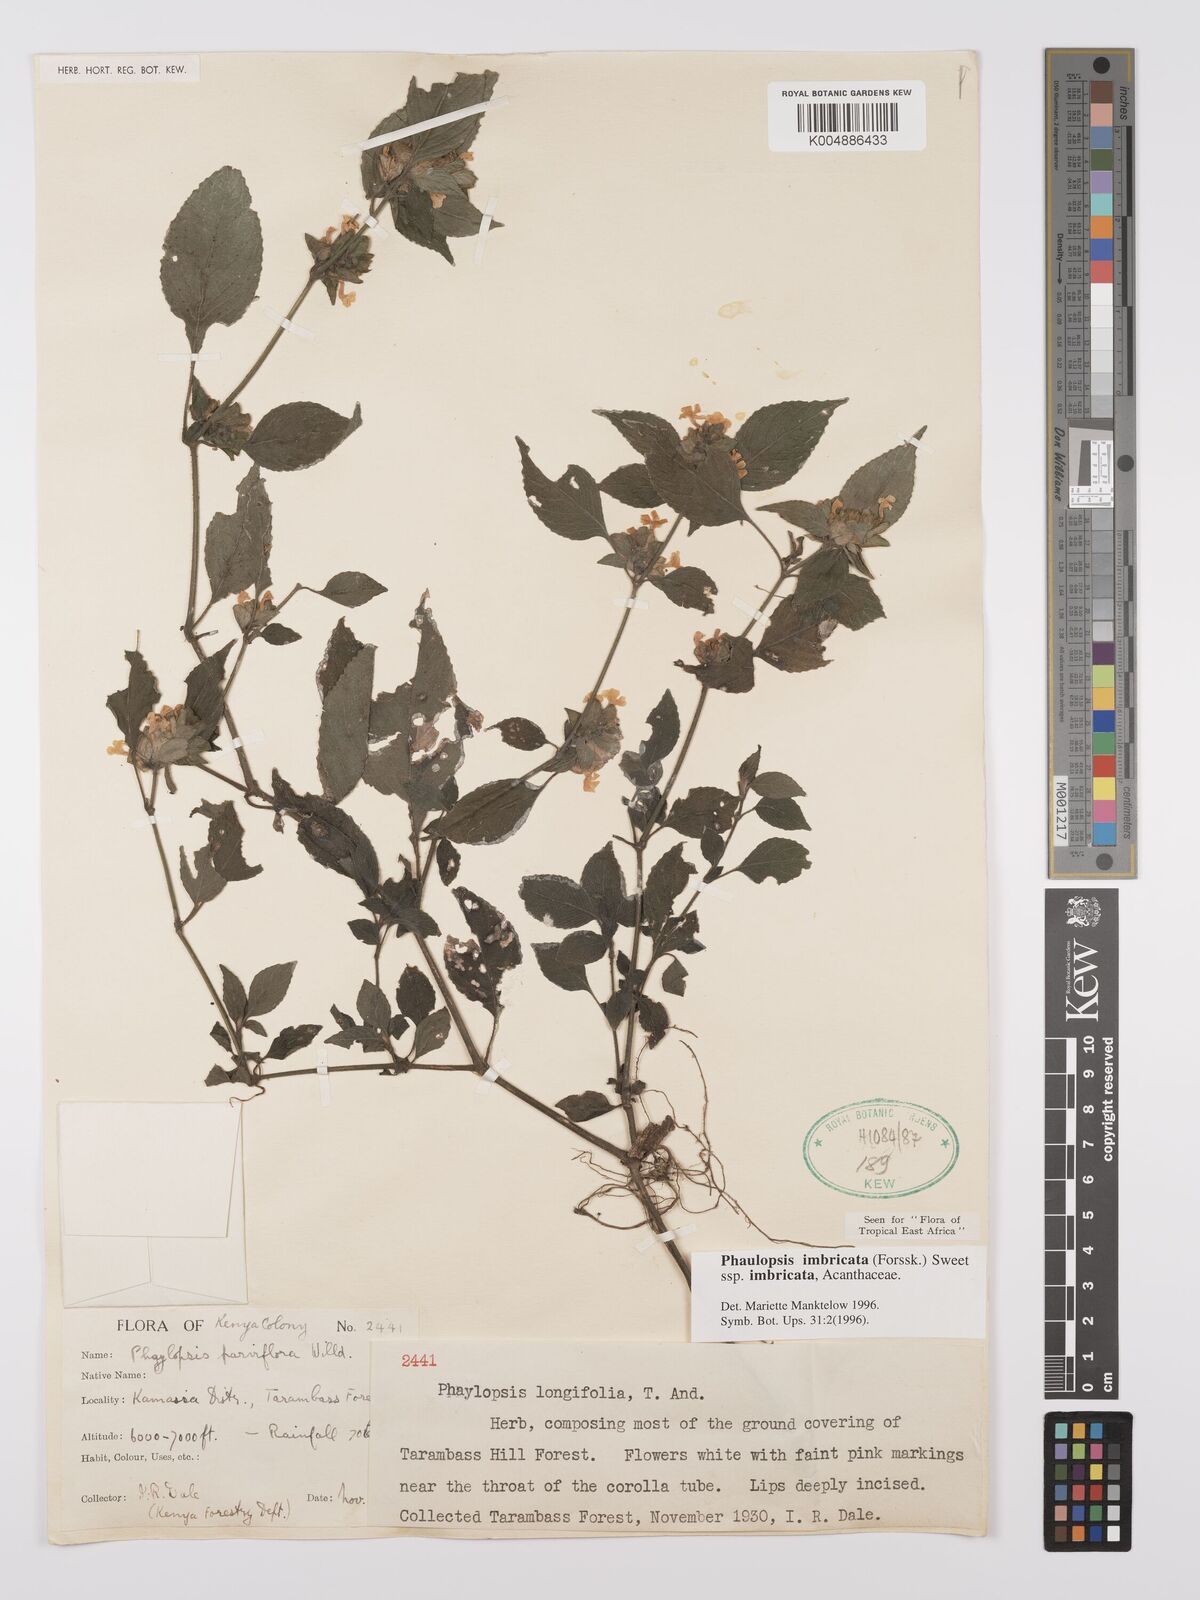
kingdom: Plantae
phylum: Tracheophyta
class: Magnoliopsida
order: Lamiales
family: Acanthaceae
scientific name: Acanthaceae
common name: Acanthaceae
